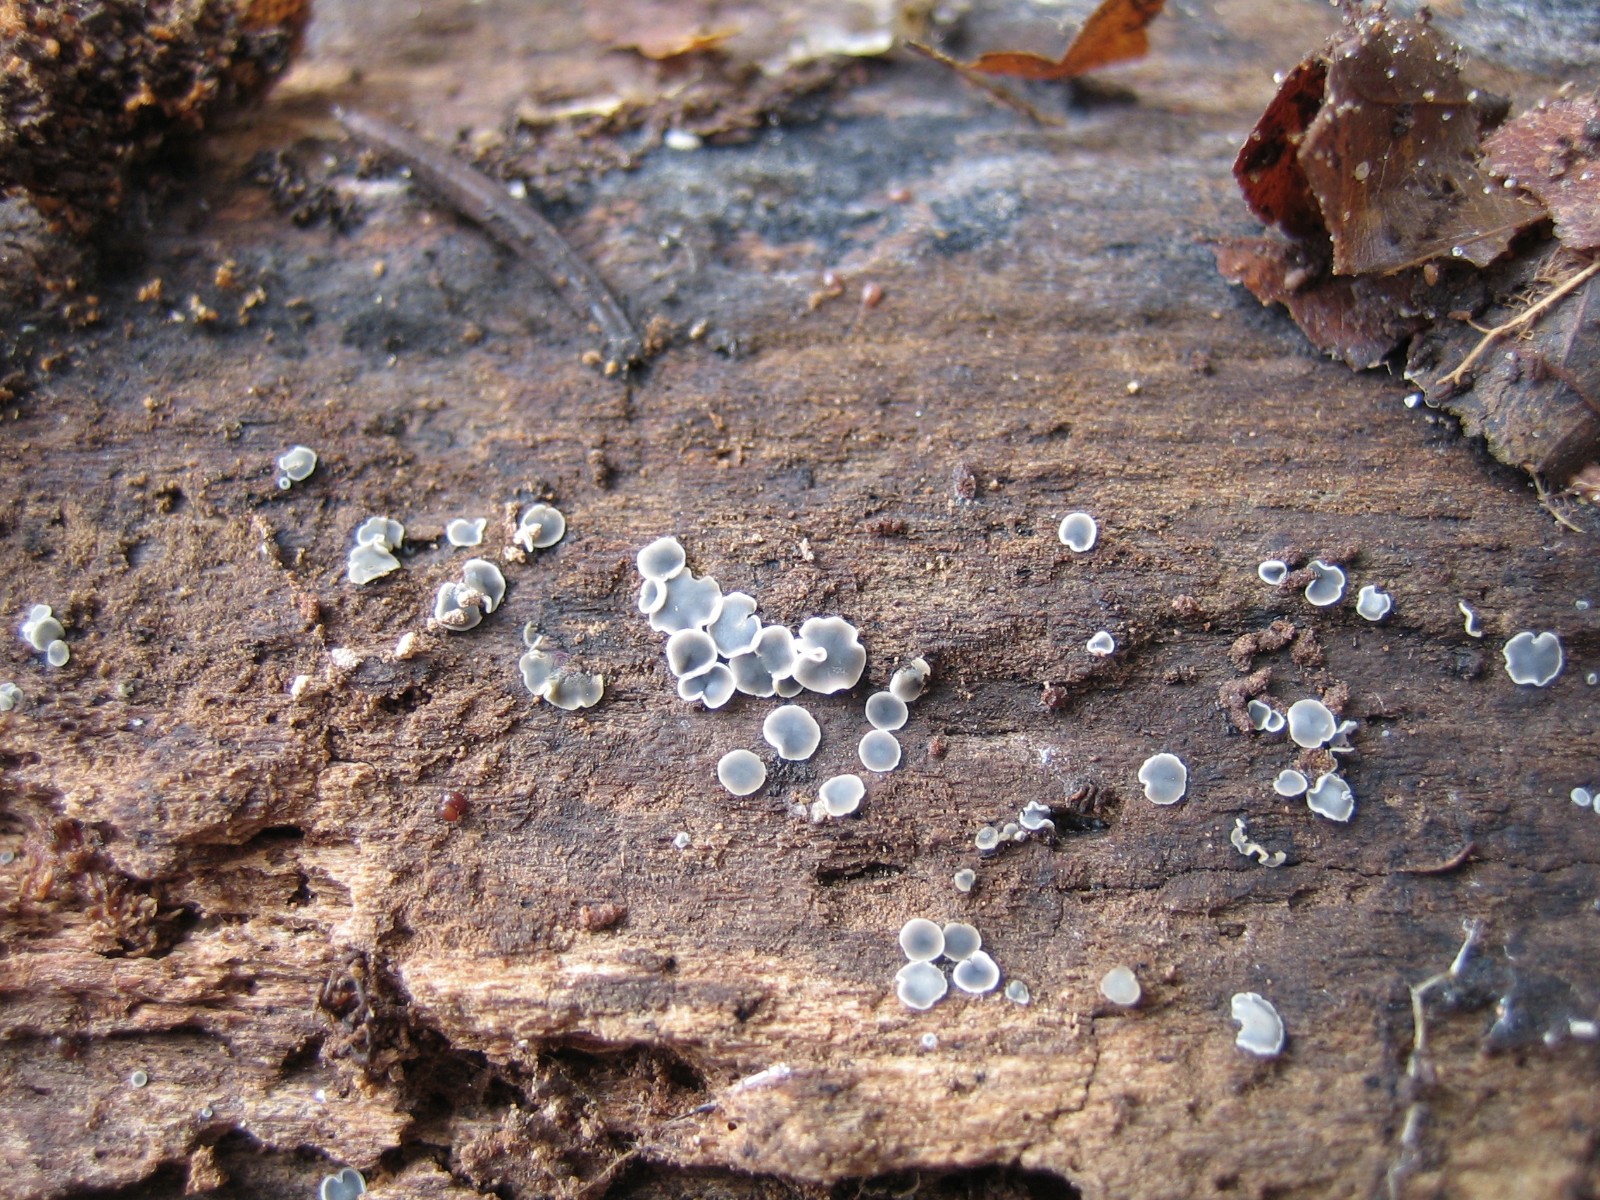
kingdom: Fungi
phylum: Ascomycota
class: Leotiomycetes
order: Helotiales
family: Mollisiaceae
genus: Mollisia
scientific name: Mollisia cinerea
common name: almindelig gråskive
